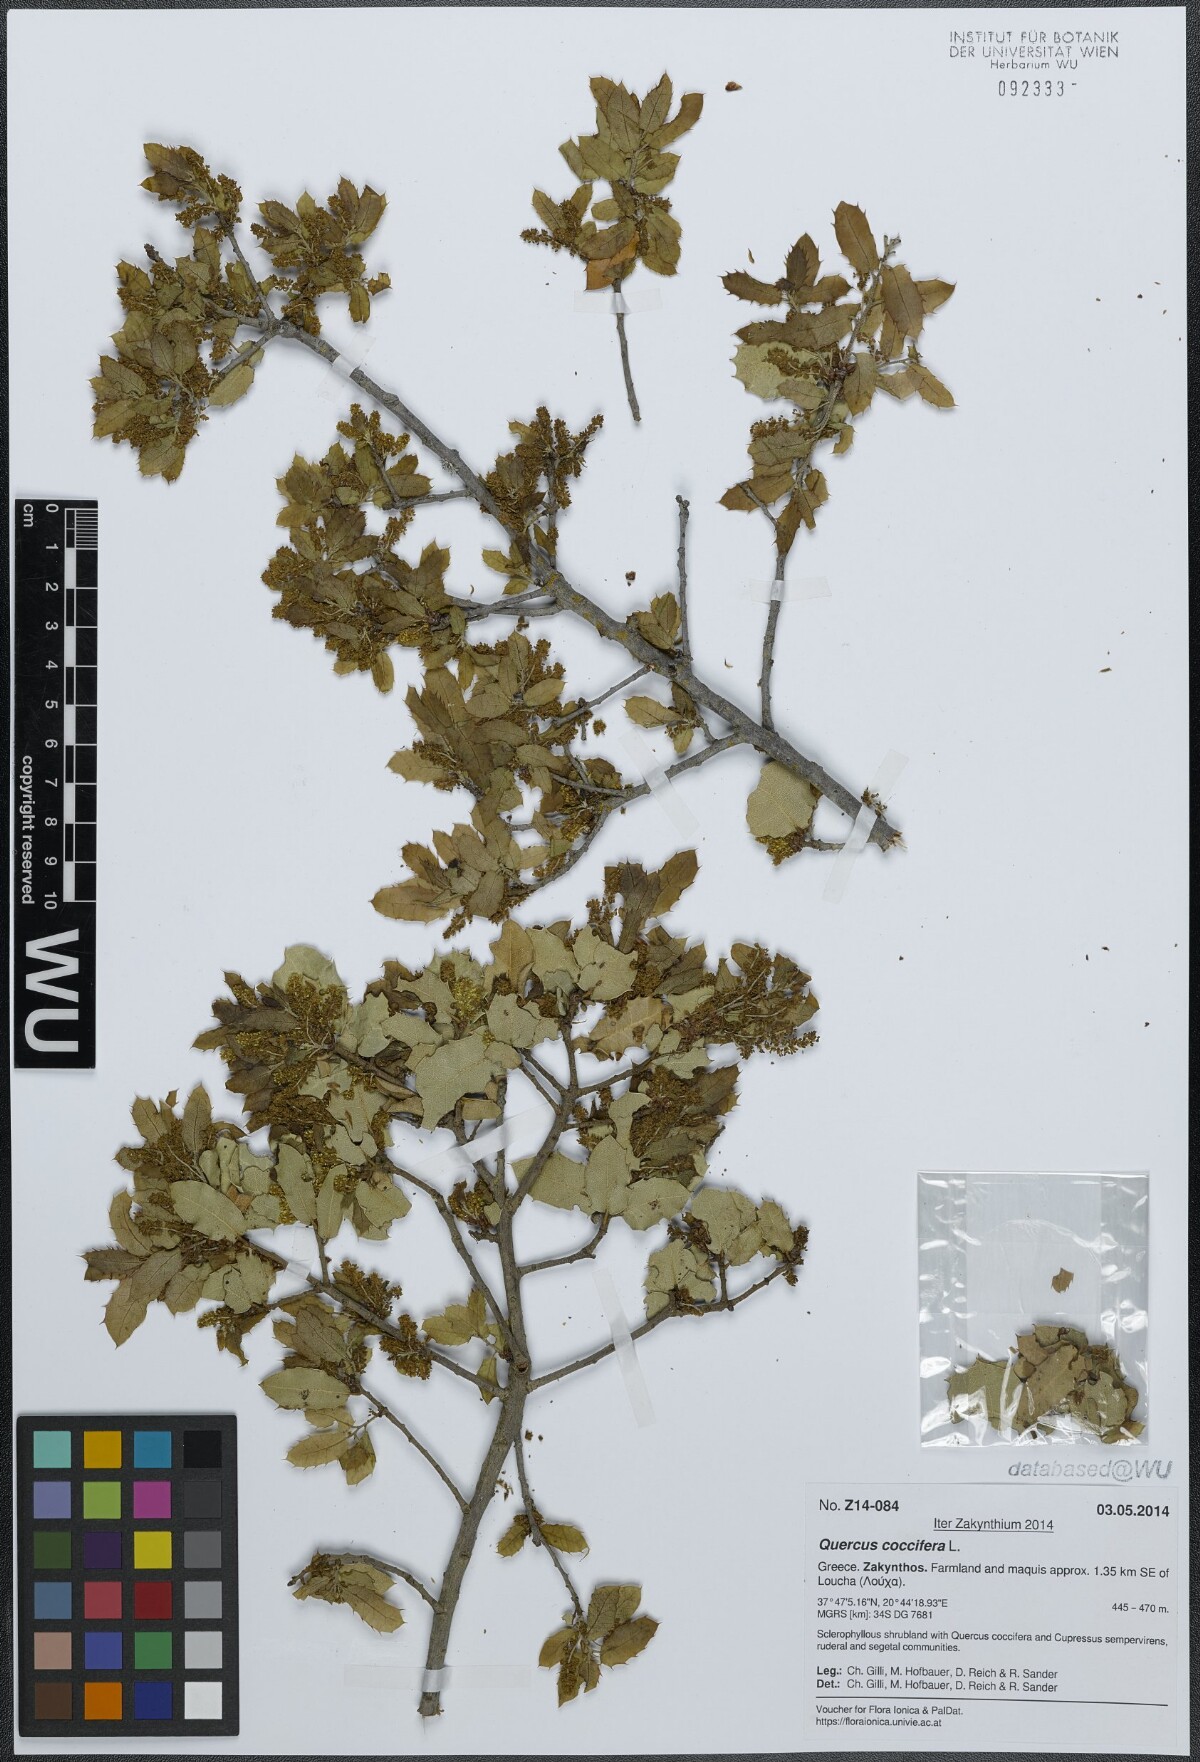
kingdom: Plantae
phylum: Tracheophyta
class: Magnoliopsida
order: Fagales
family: Fagaceae
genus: Quercus
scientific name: Quercus coccifera
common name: Kermes oak
